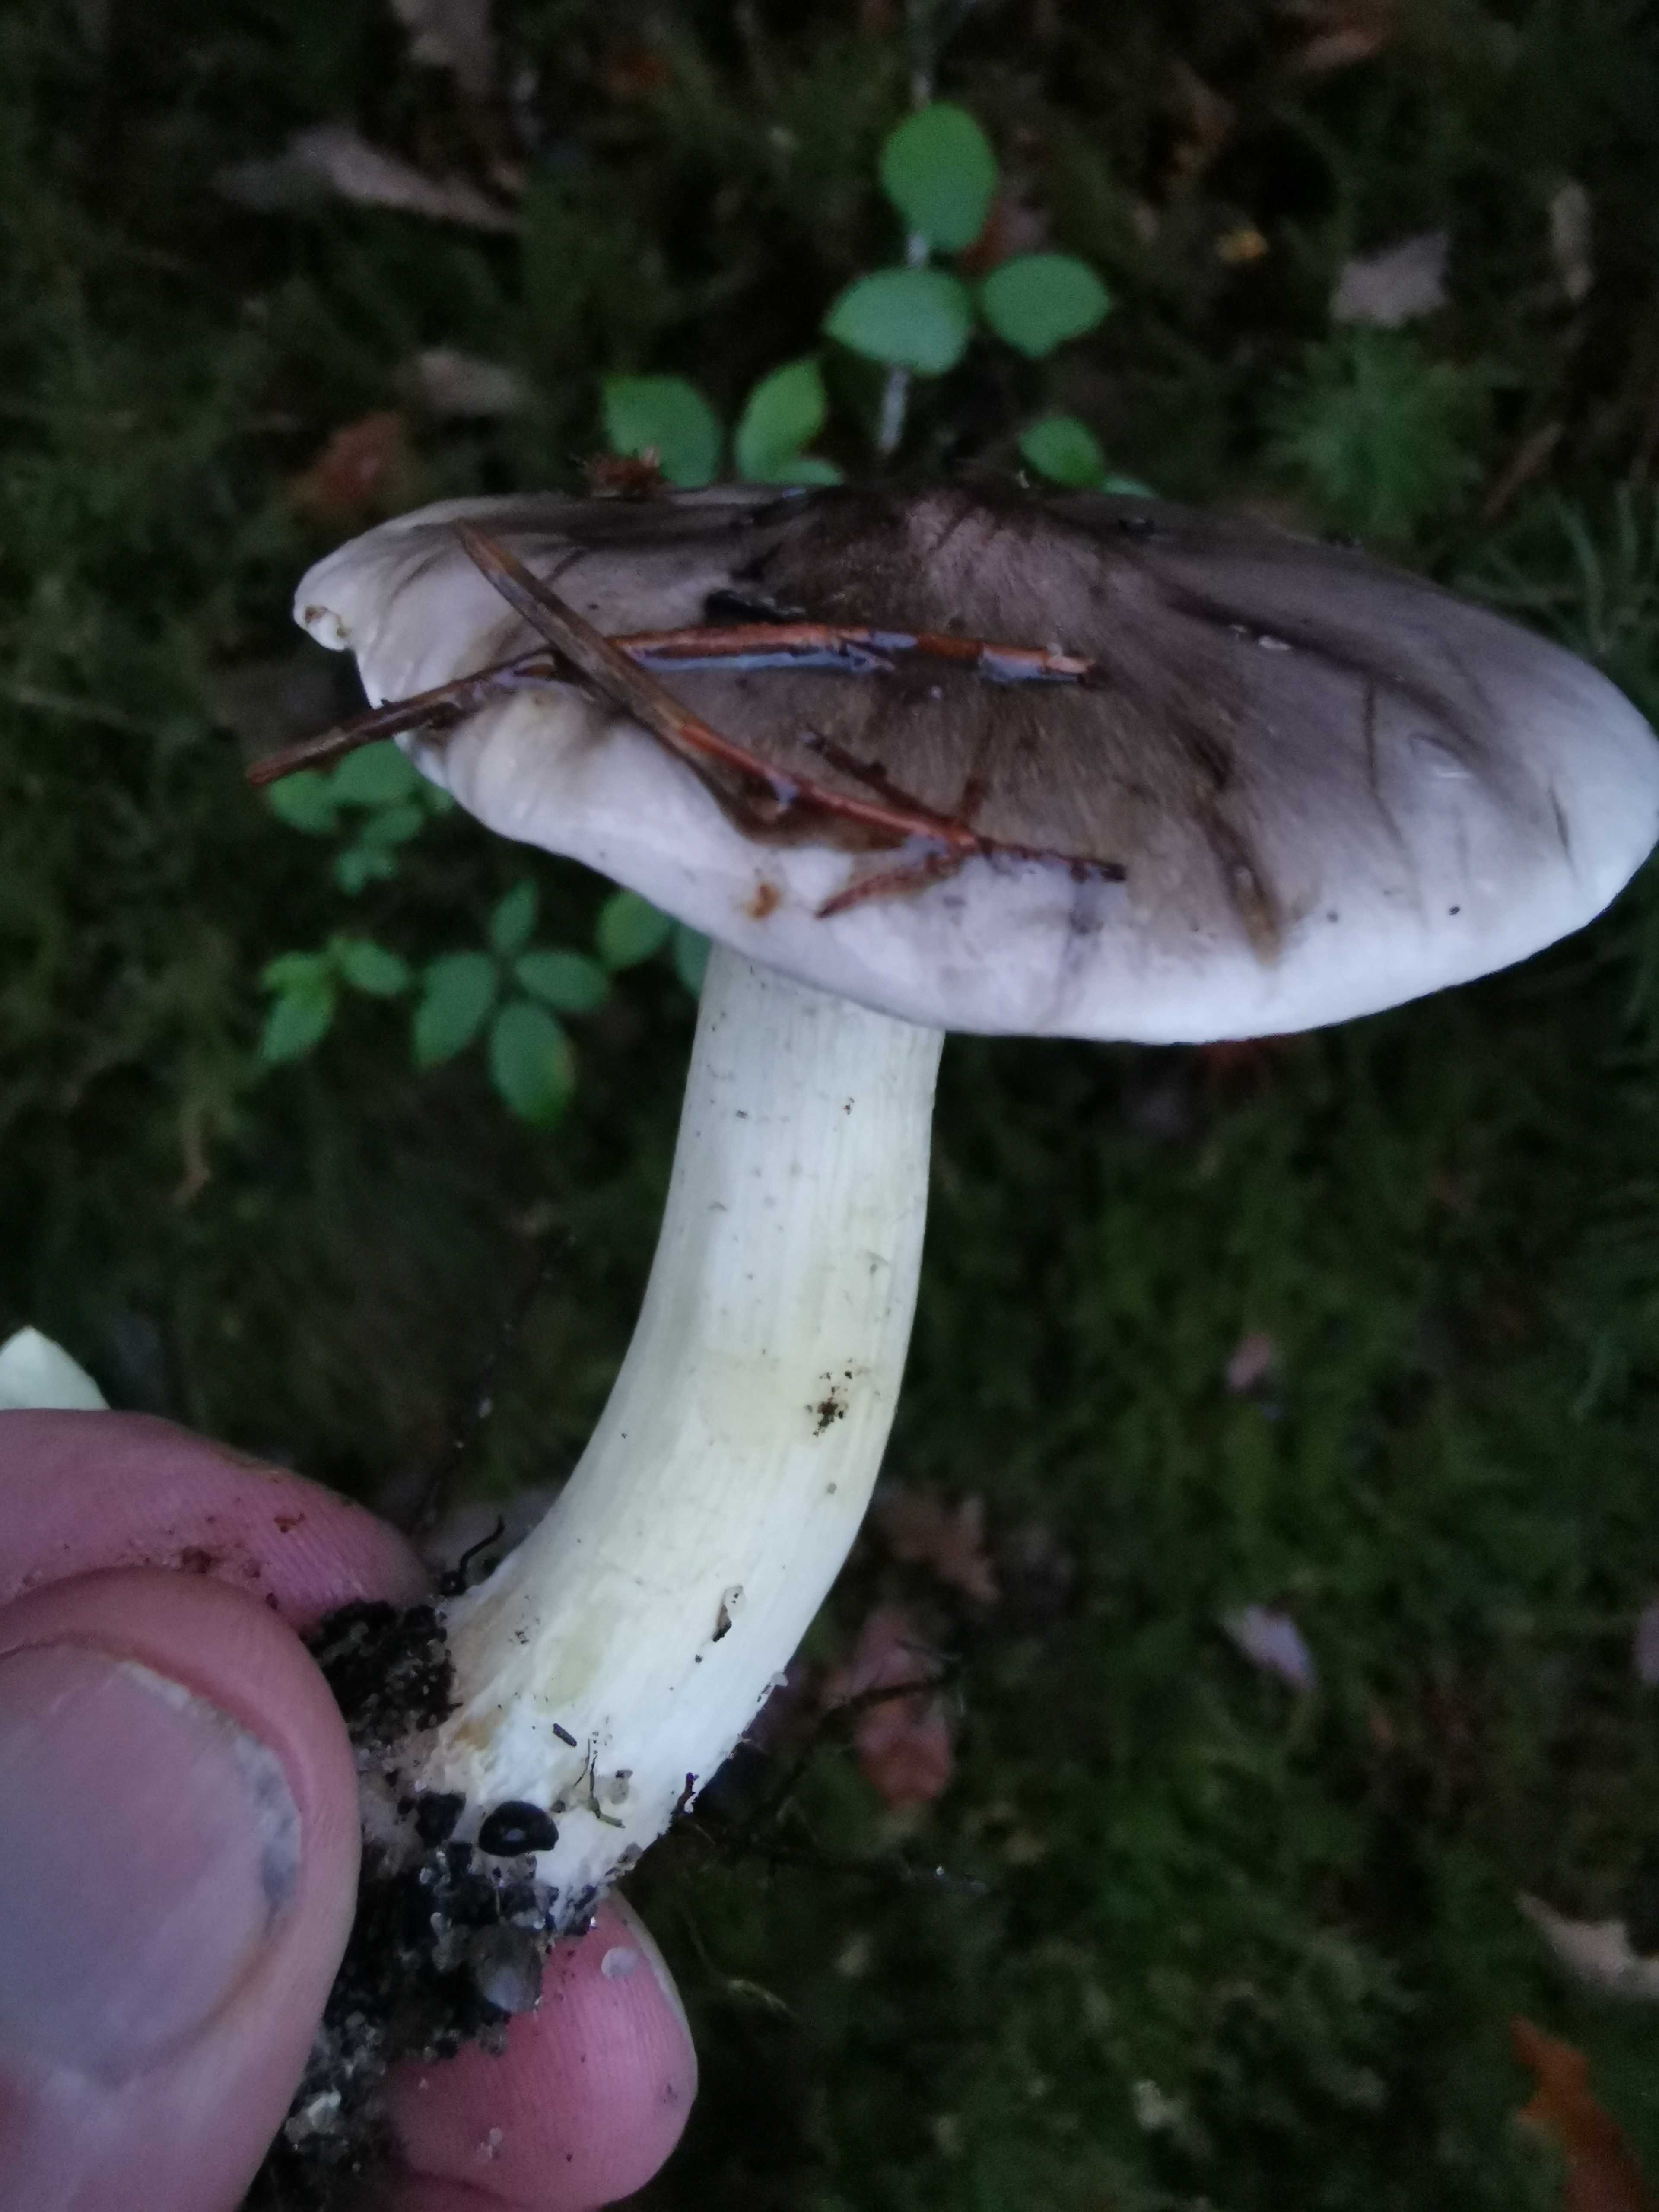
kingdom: Fungi
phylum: Basidiomycota
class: Agaricomycetes
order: Agaricales
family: Tricholomataceae
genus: Tricholoma
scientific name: Tricholoma portentosum
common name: grå ridderhat
